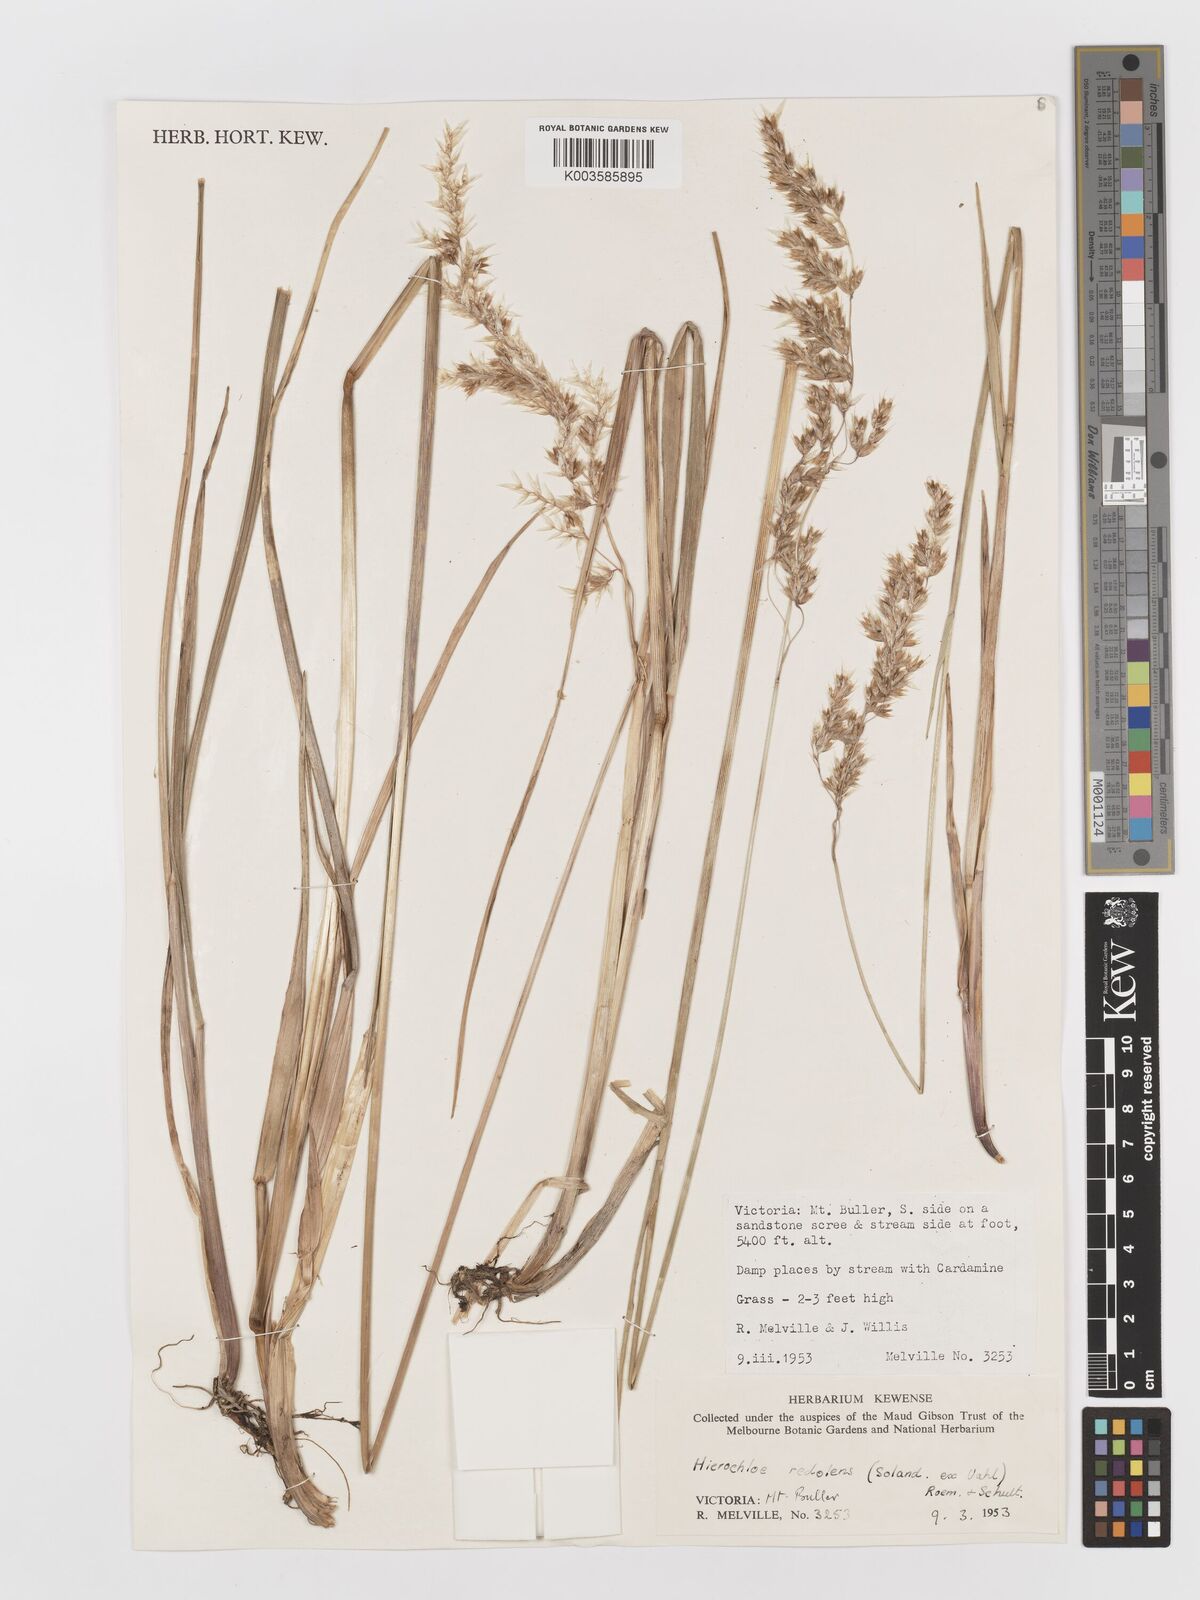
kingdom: Plantae
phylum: Tracheophyta
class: Liliopsida
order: Poales
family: Poaceae
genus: Anthoxanthum
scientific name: Anthoxanthum redolens
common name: Sweet holy grass
